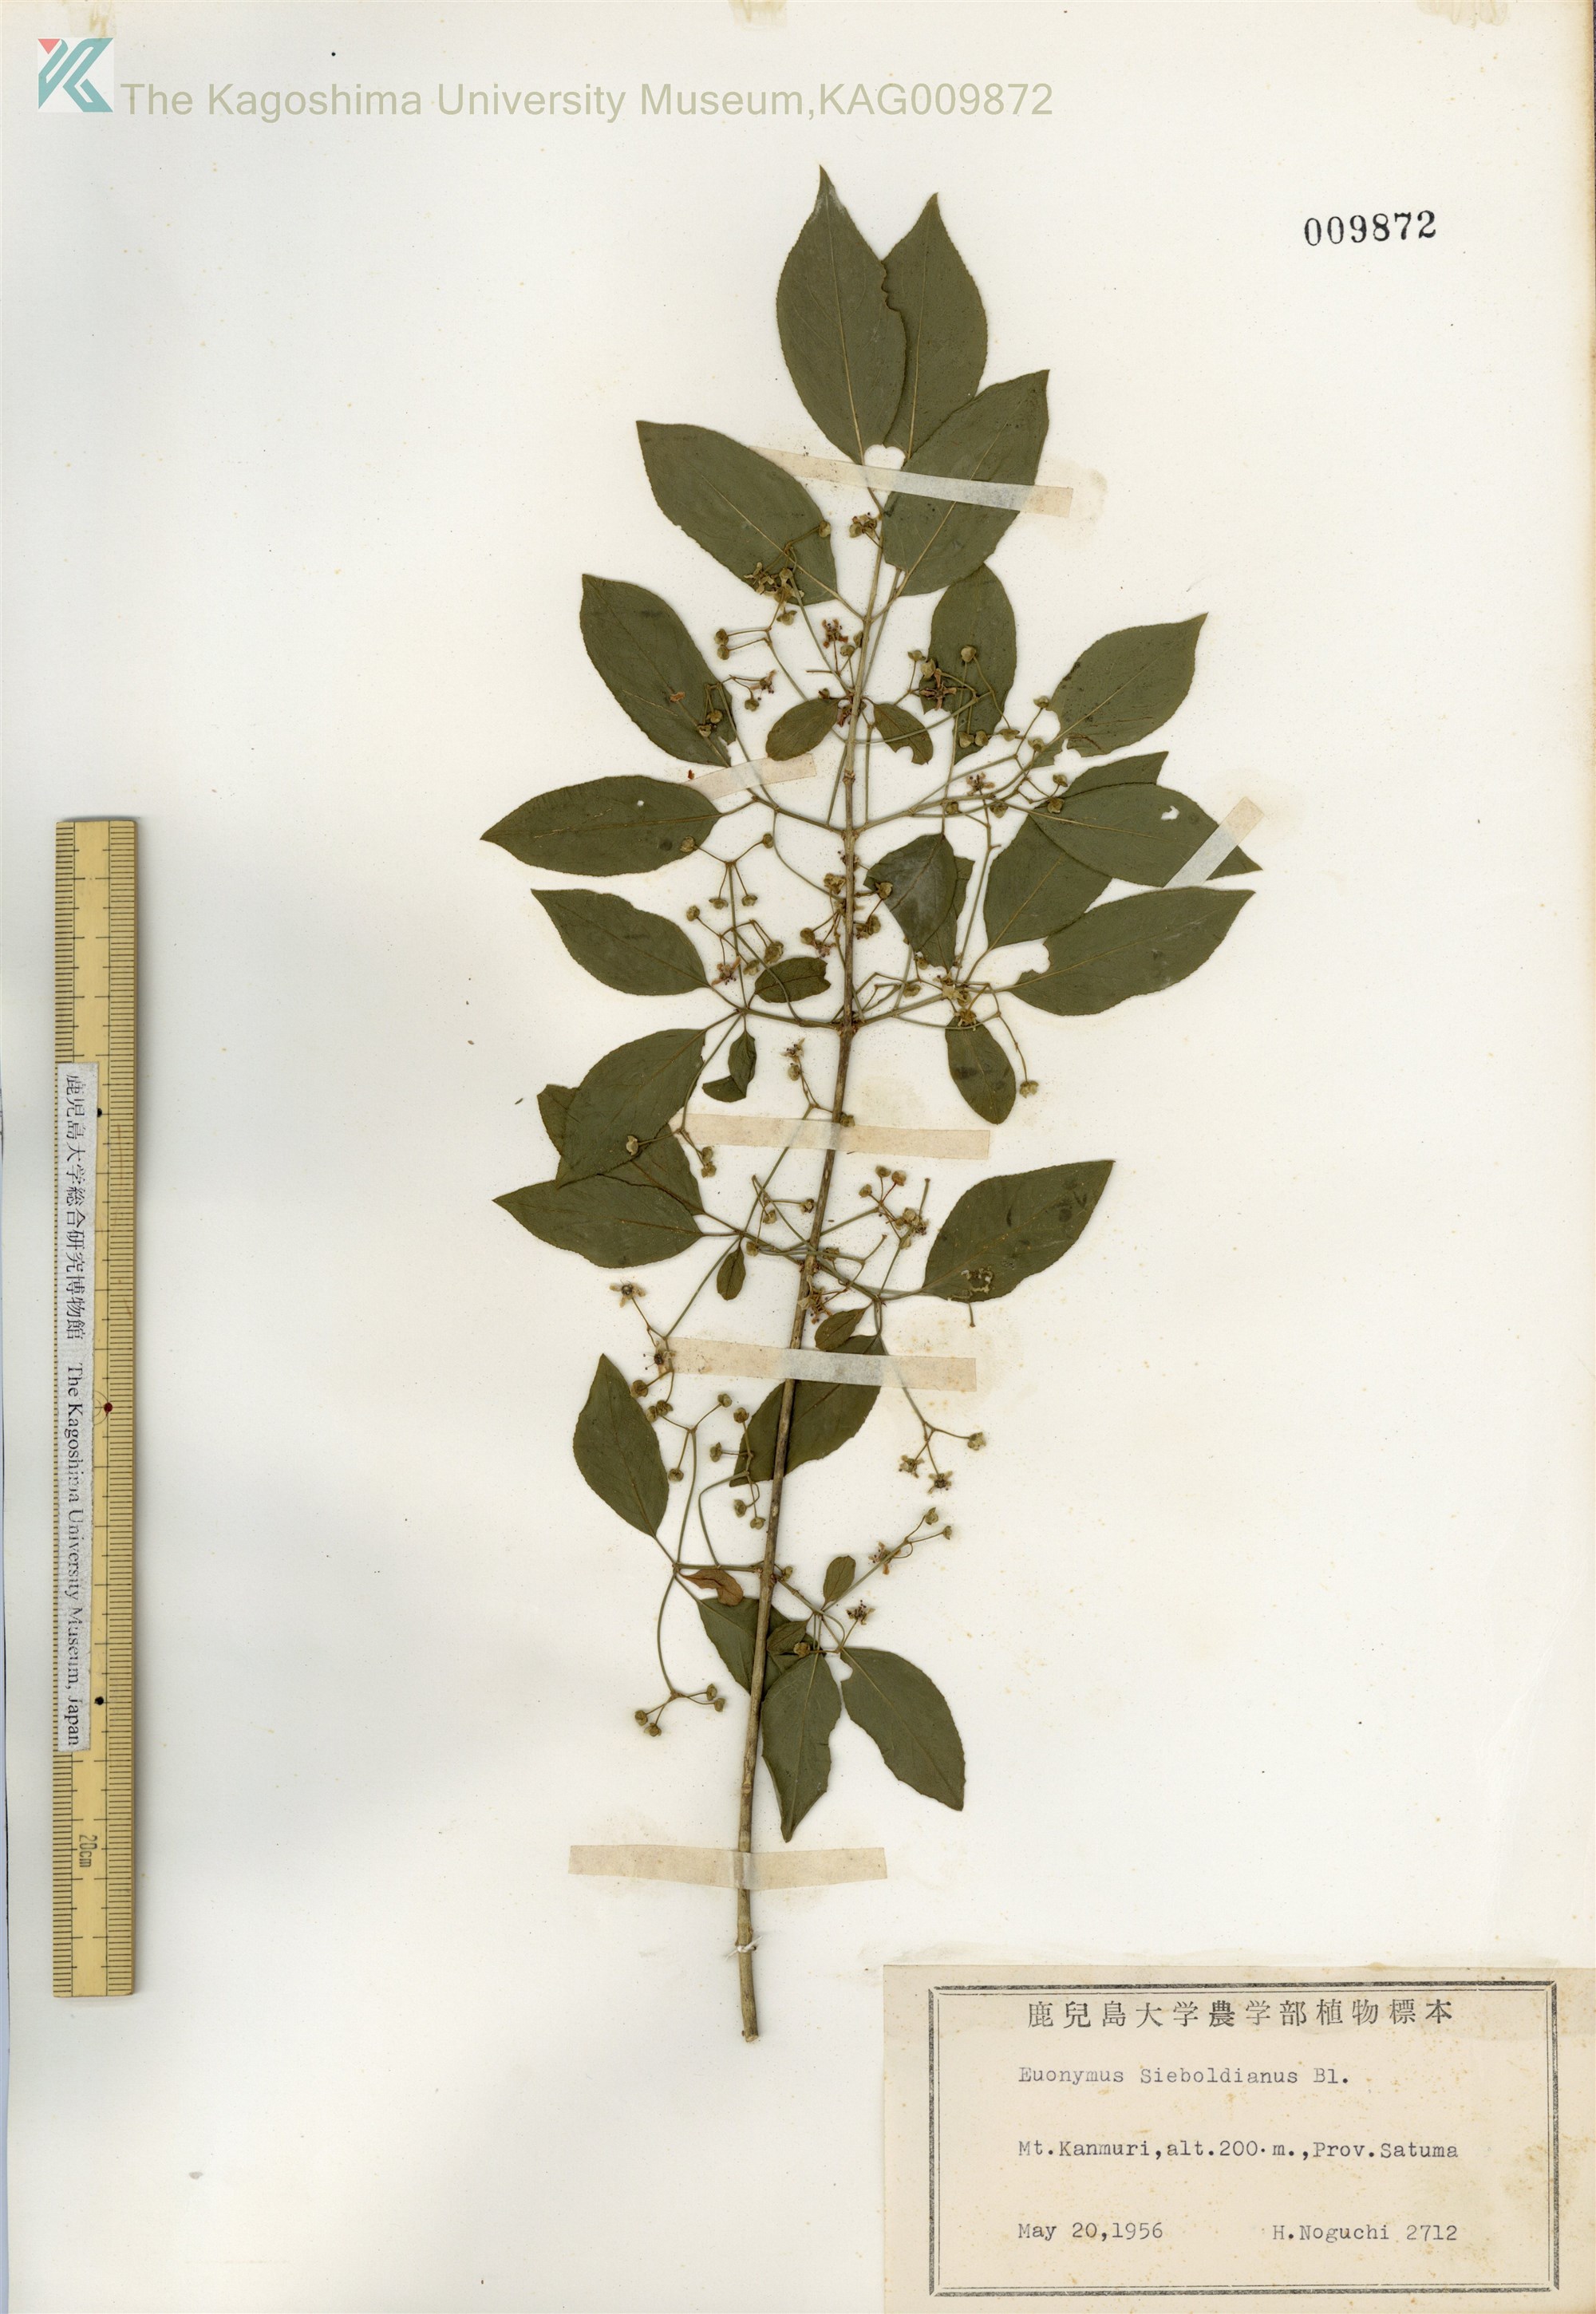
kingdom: Plantae
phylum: Tracheophyta
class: Magnoliopsida
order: Celastrales
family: Celastraceae
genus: Euonymus
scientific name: Euonymus hamiltonianus
